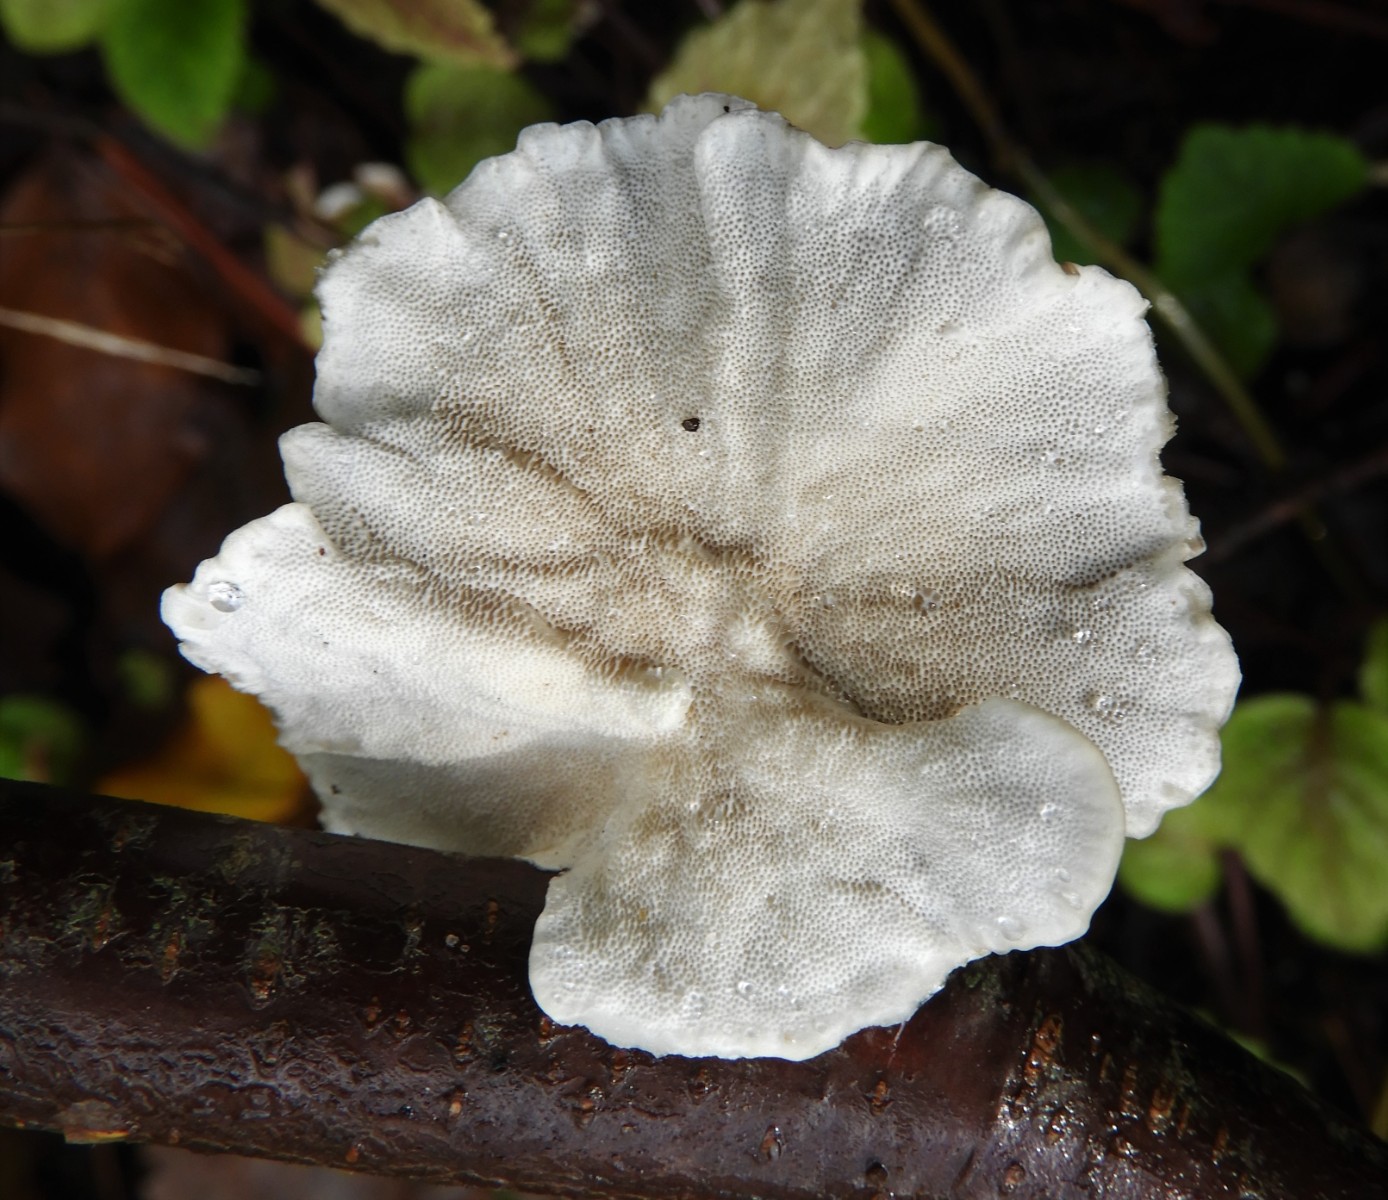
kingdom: Fungi
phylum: Basidiomycota
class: Agaricomycetes
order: Polyporales
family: Polyporaceae
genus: Trametes
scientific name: Trametes versicolor
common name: broget læderporesvamp
